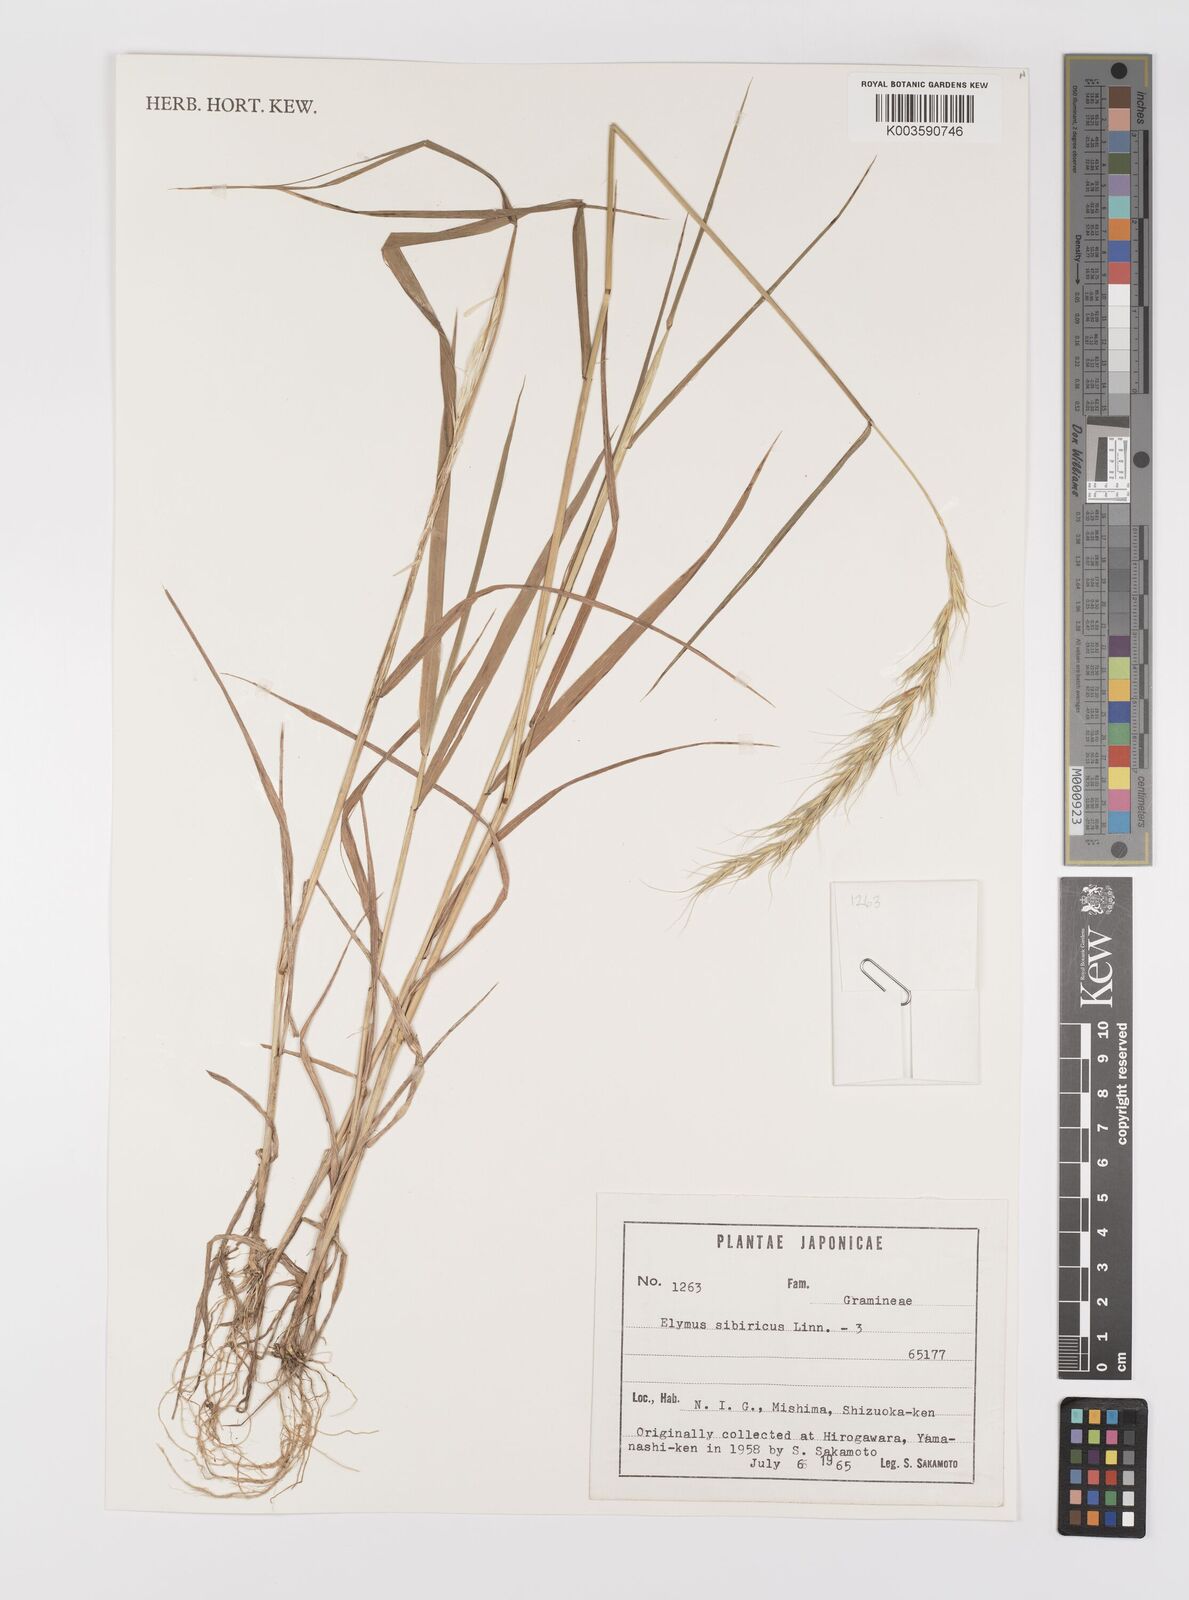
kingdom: Plantae
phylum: Tracheophyta
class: Liliopsida
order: Poales
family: Poaceae
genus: Elymus
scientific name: Elymus sibiricus
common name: Siberian wildrye
